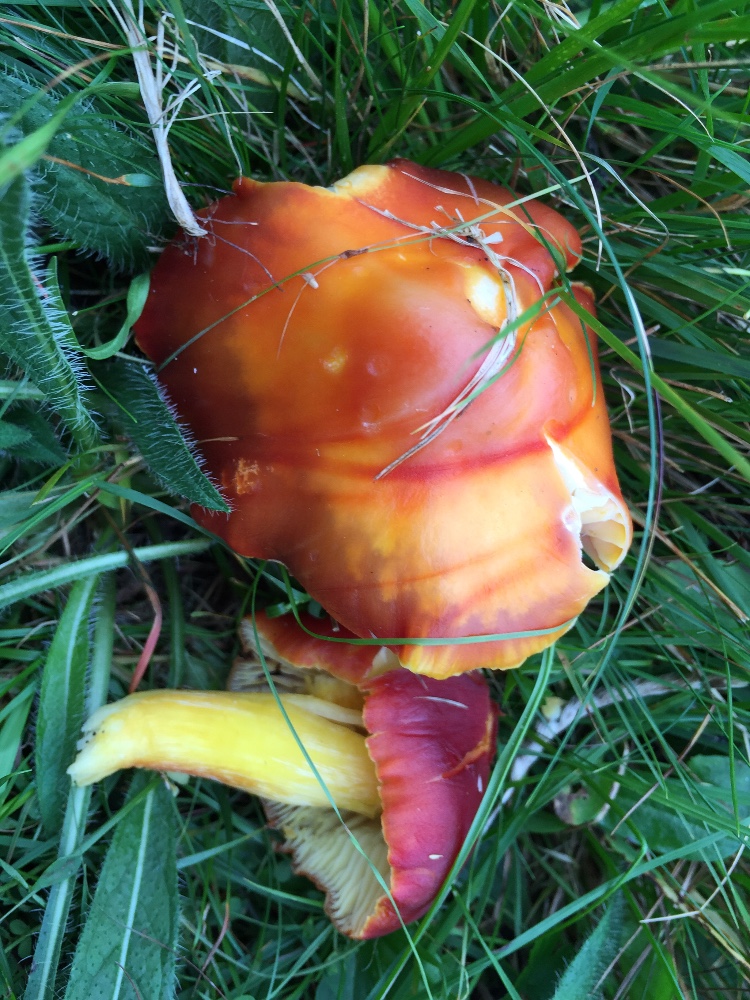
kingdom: Fungi
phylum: Basidiomycota
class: Agaricomycetes
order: Agaricales
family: Hygrophoraceae
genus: Hygrocybe
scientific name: Hygrocybe punicea
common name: skarlagen-vokshat
